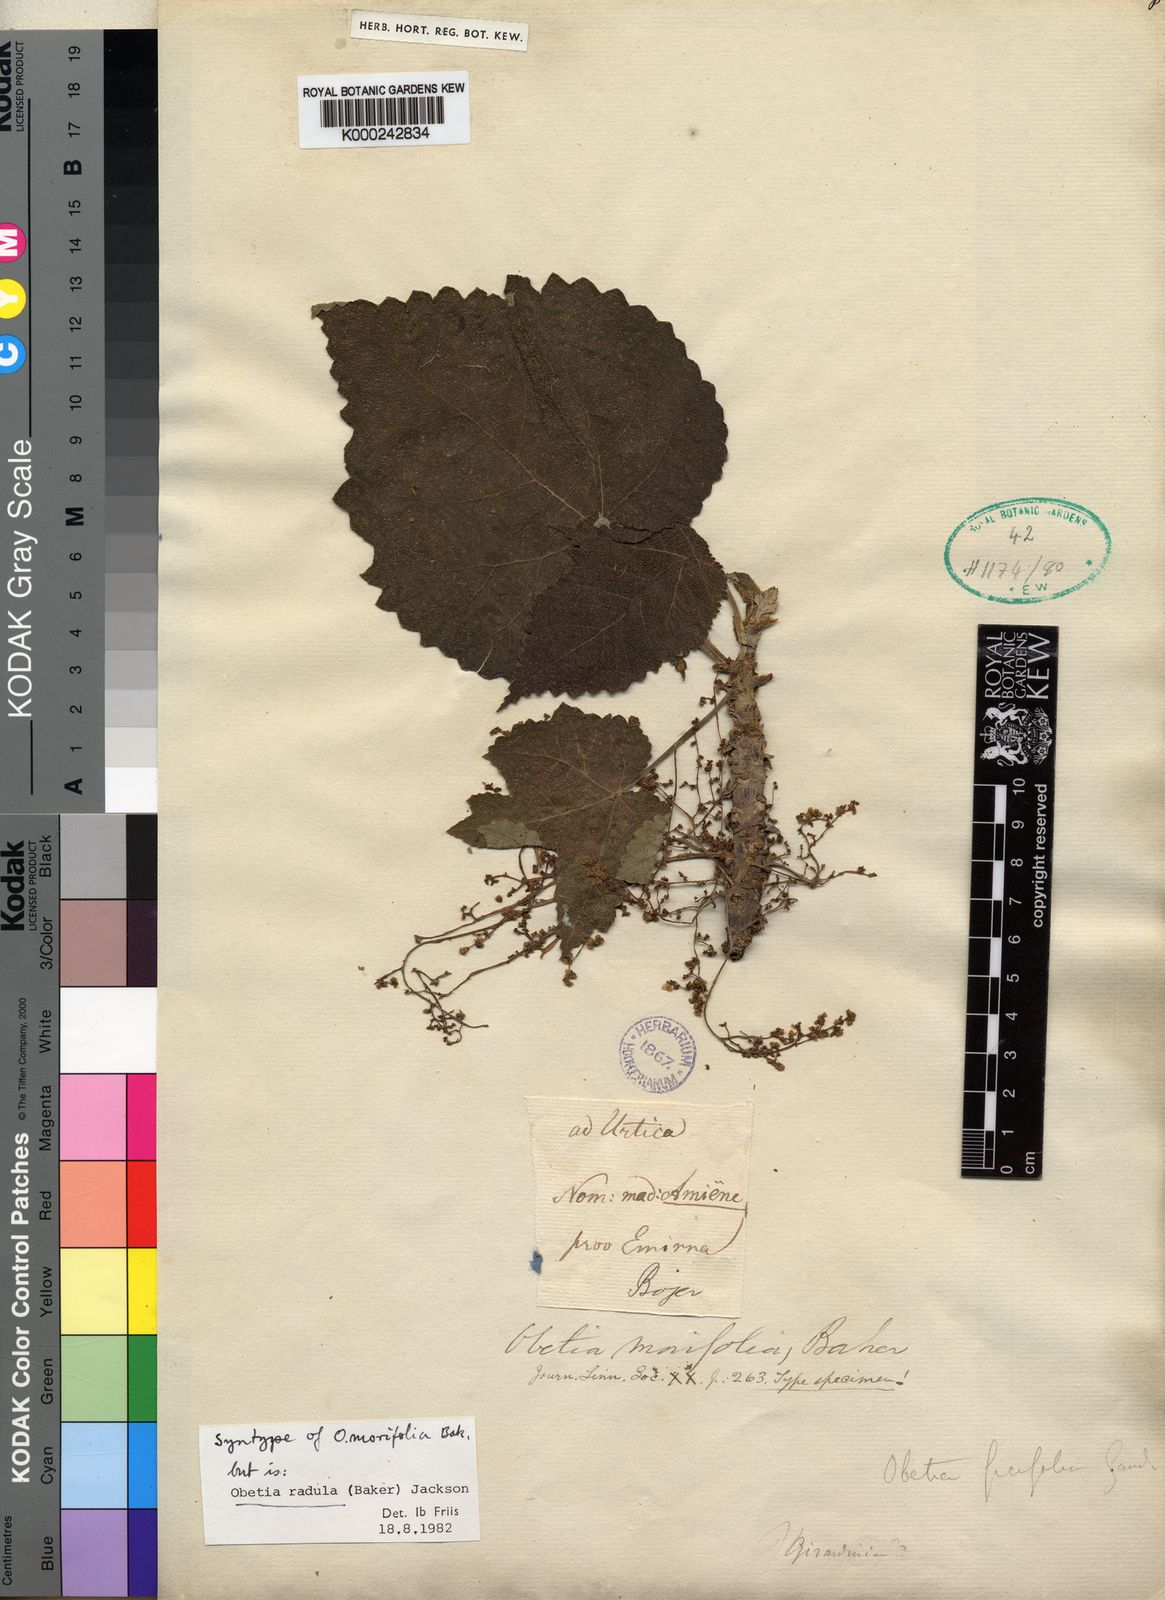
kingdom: Plantae
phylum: Tracheophyta
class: Magnoliopsida
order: Rosales
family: Urticaceae
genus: Obetia
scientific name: Obetia radula
